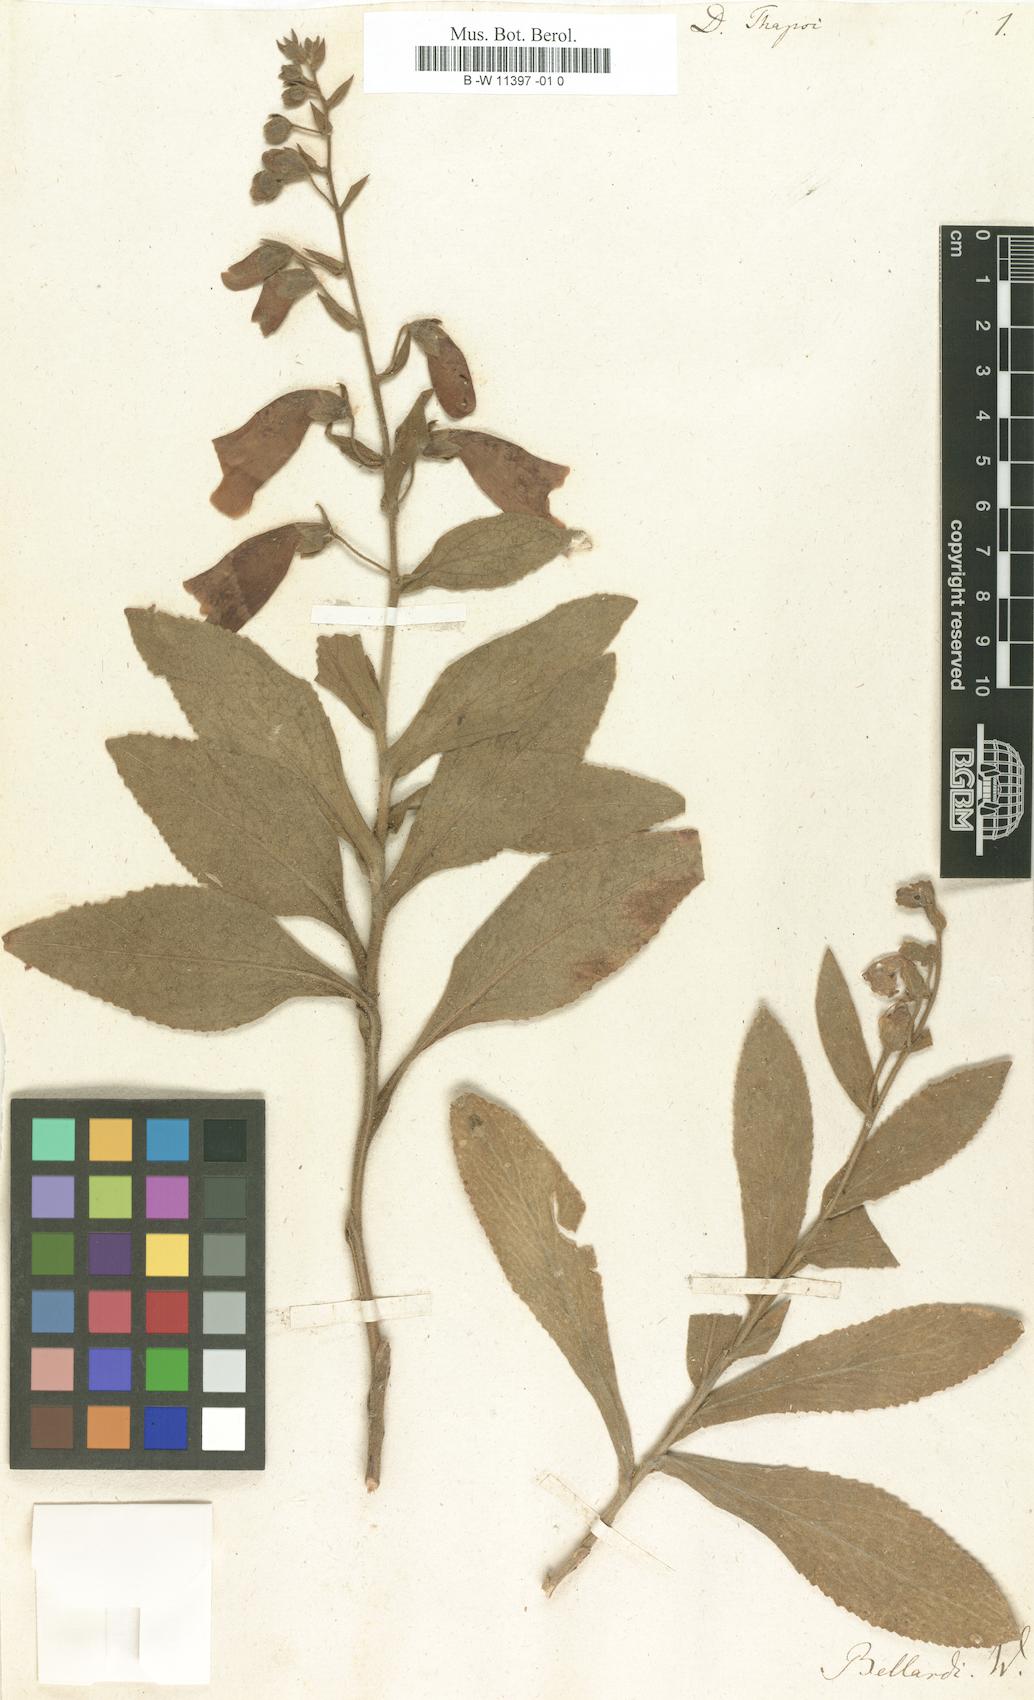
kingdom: Plantae
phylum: Tracheophyta
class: Magnoliopsida
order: Lamiales
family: Plantaginaceae
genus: Digitalis
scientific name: Digitalis thapsi
